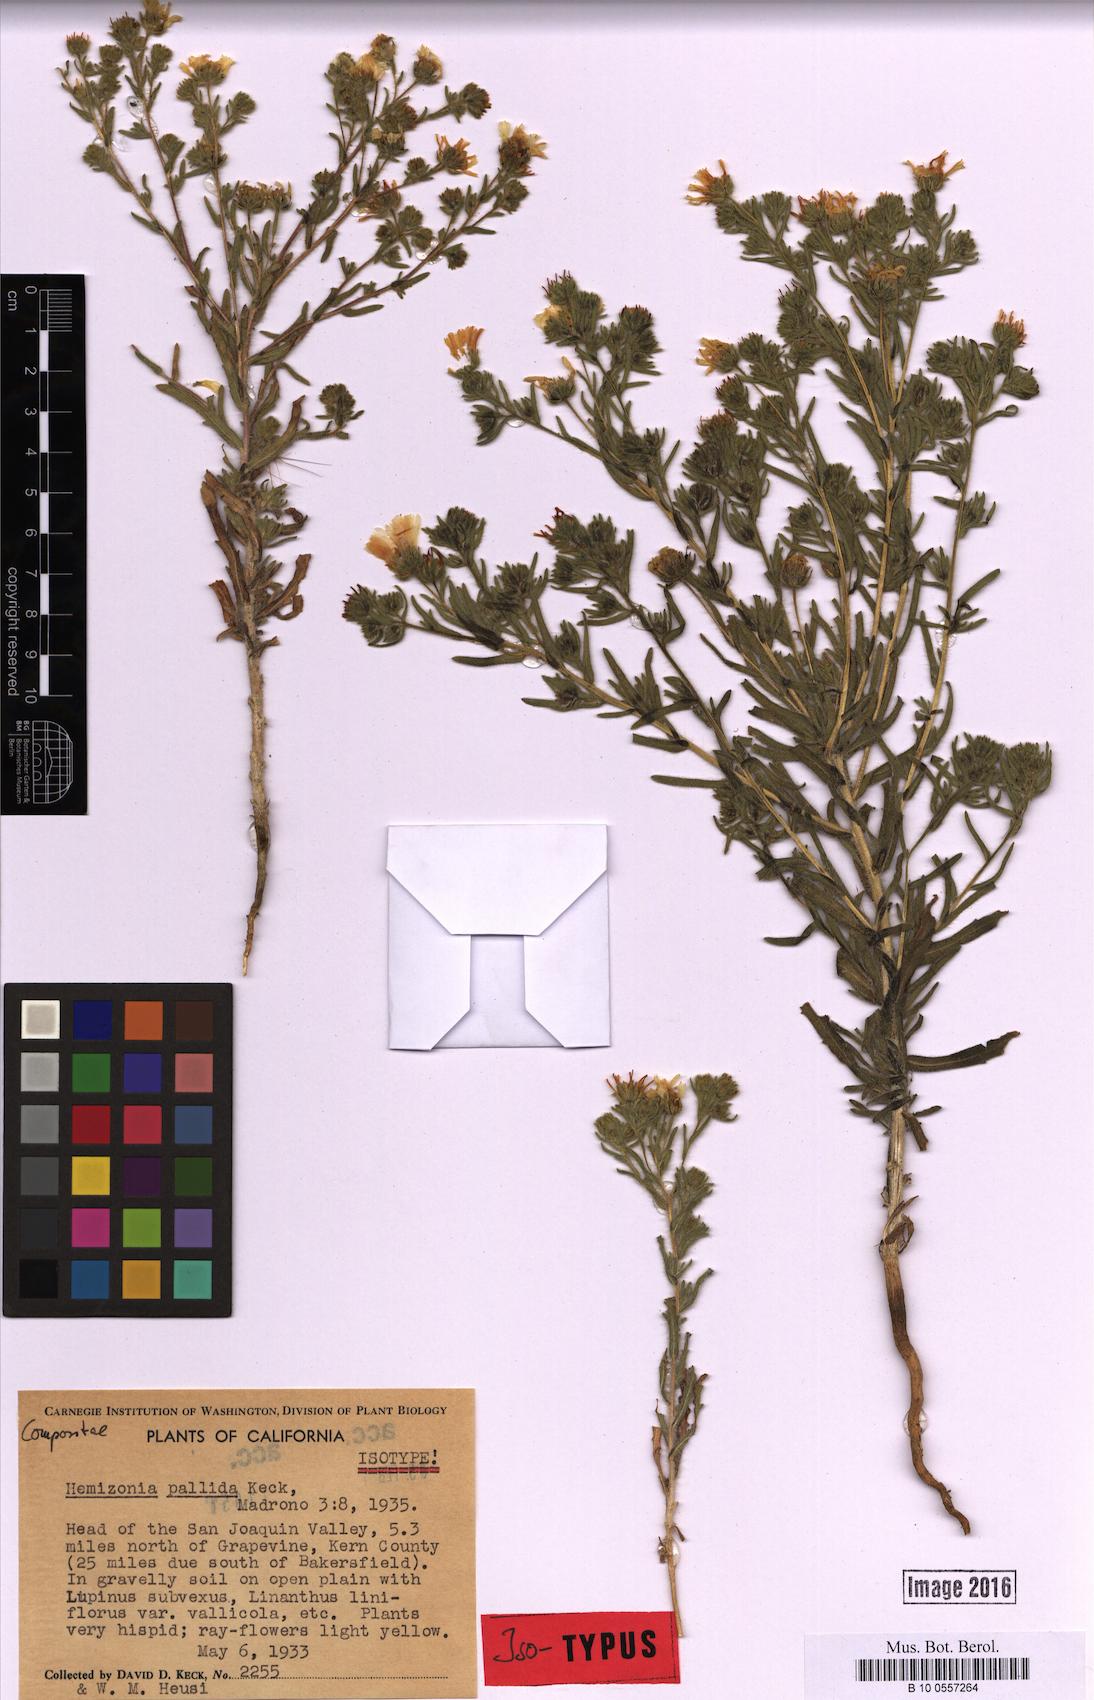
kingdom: Plantae
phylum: Tracheophyta
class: Magnoliopsida
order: Asterales
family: Asteraceae
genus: Deinandra
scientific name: Deinandra pallida
